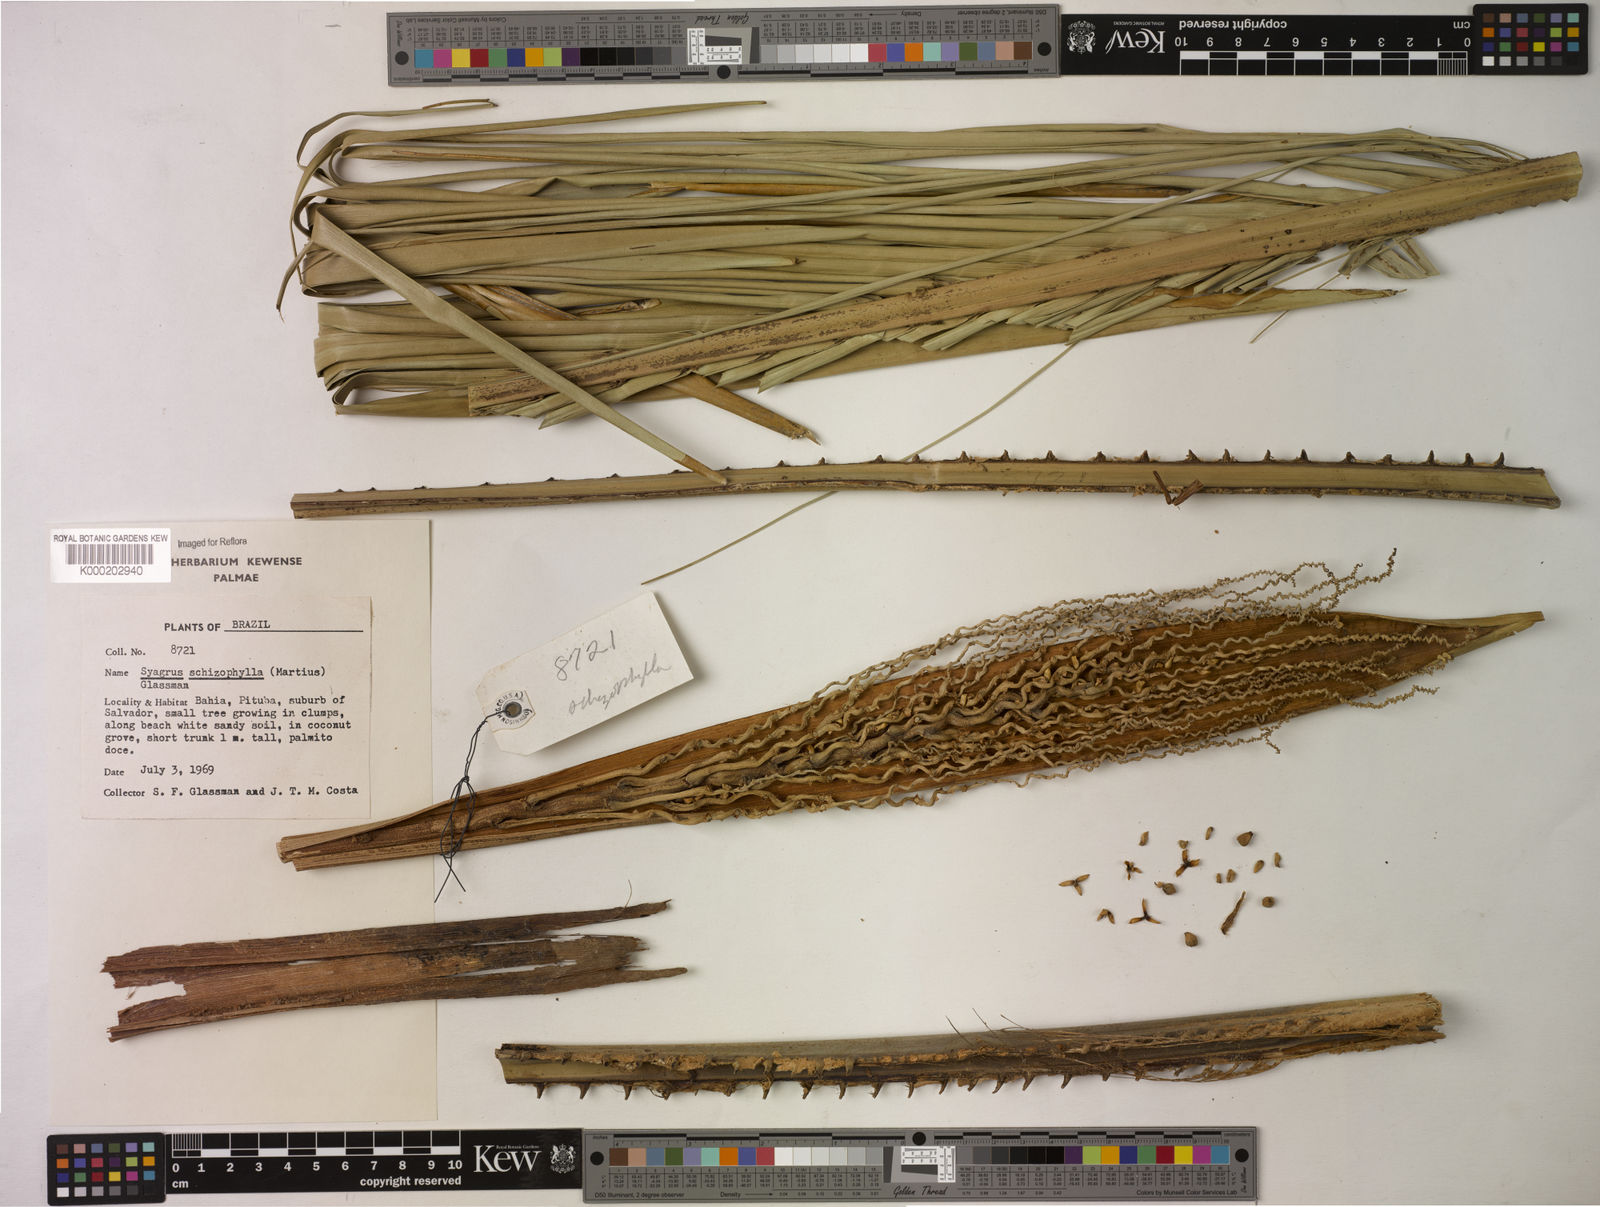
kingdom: Plantae
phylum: Tracheophyta
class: Liliopsida
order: Arecales
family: Arecaceae
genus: Syagrus
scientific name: Syagrus schizophylla
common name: Arikury palm
